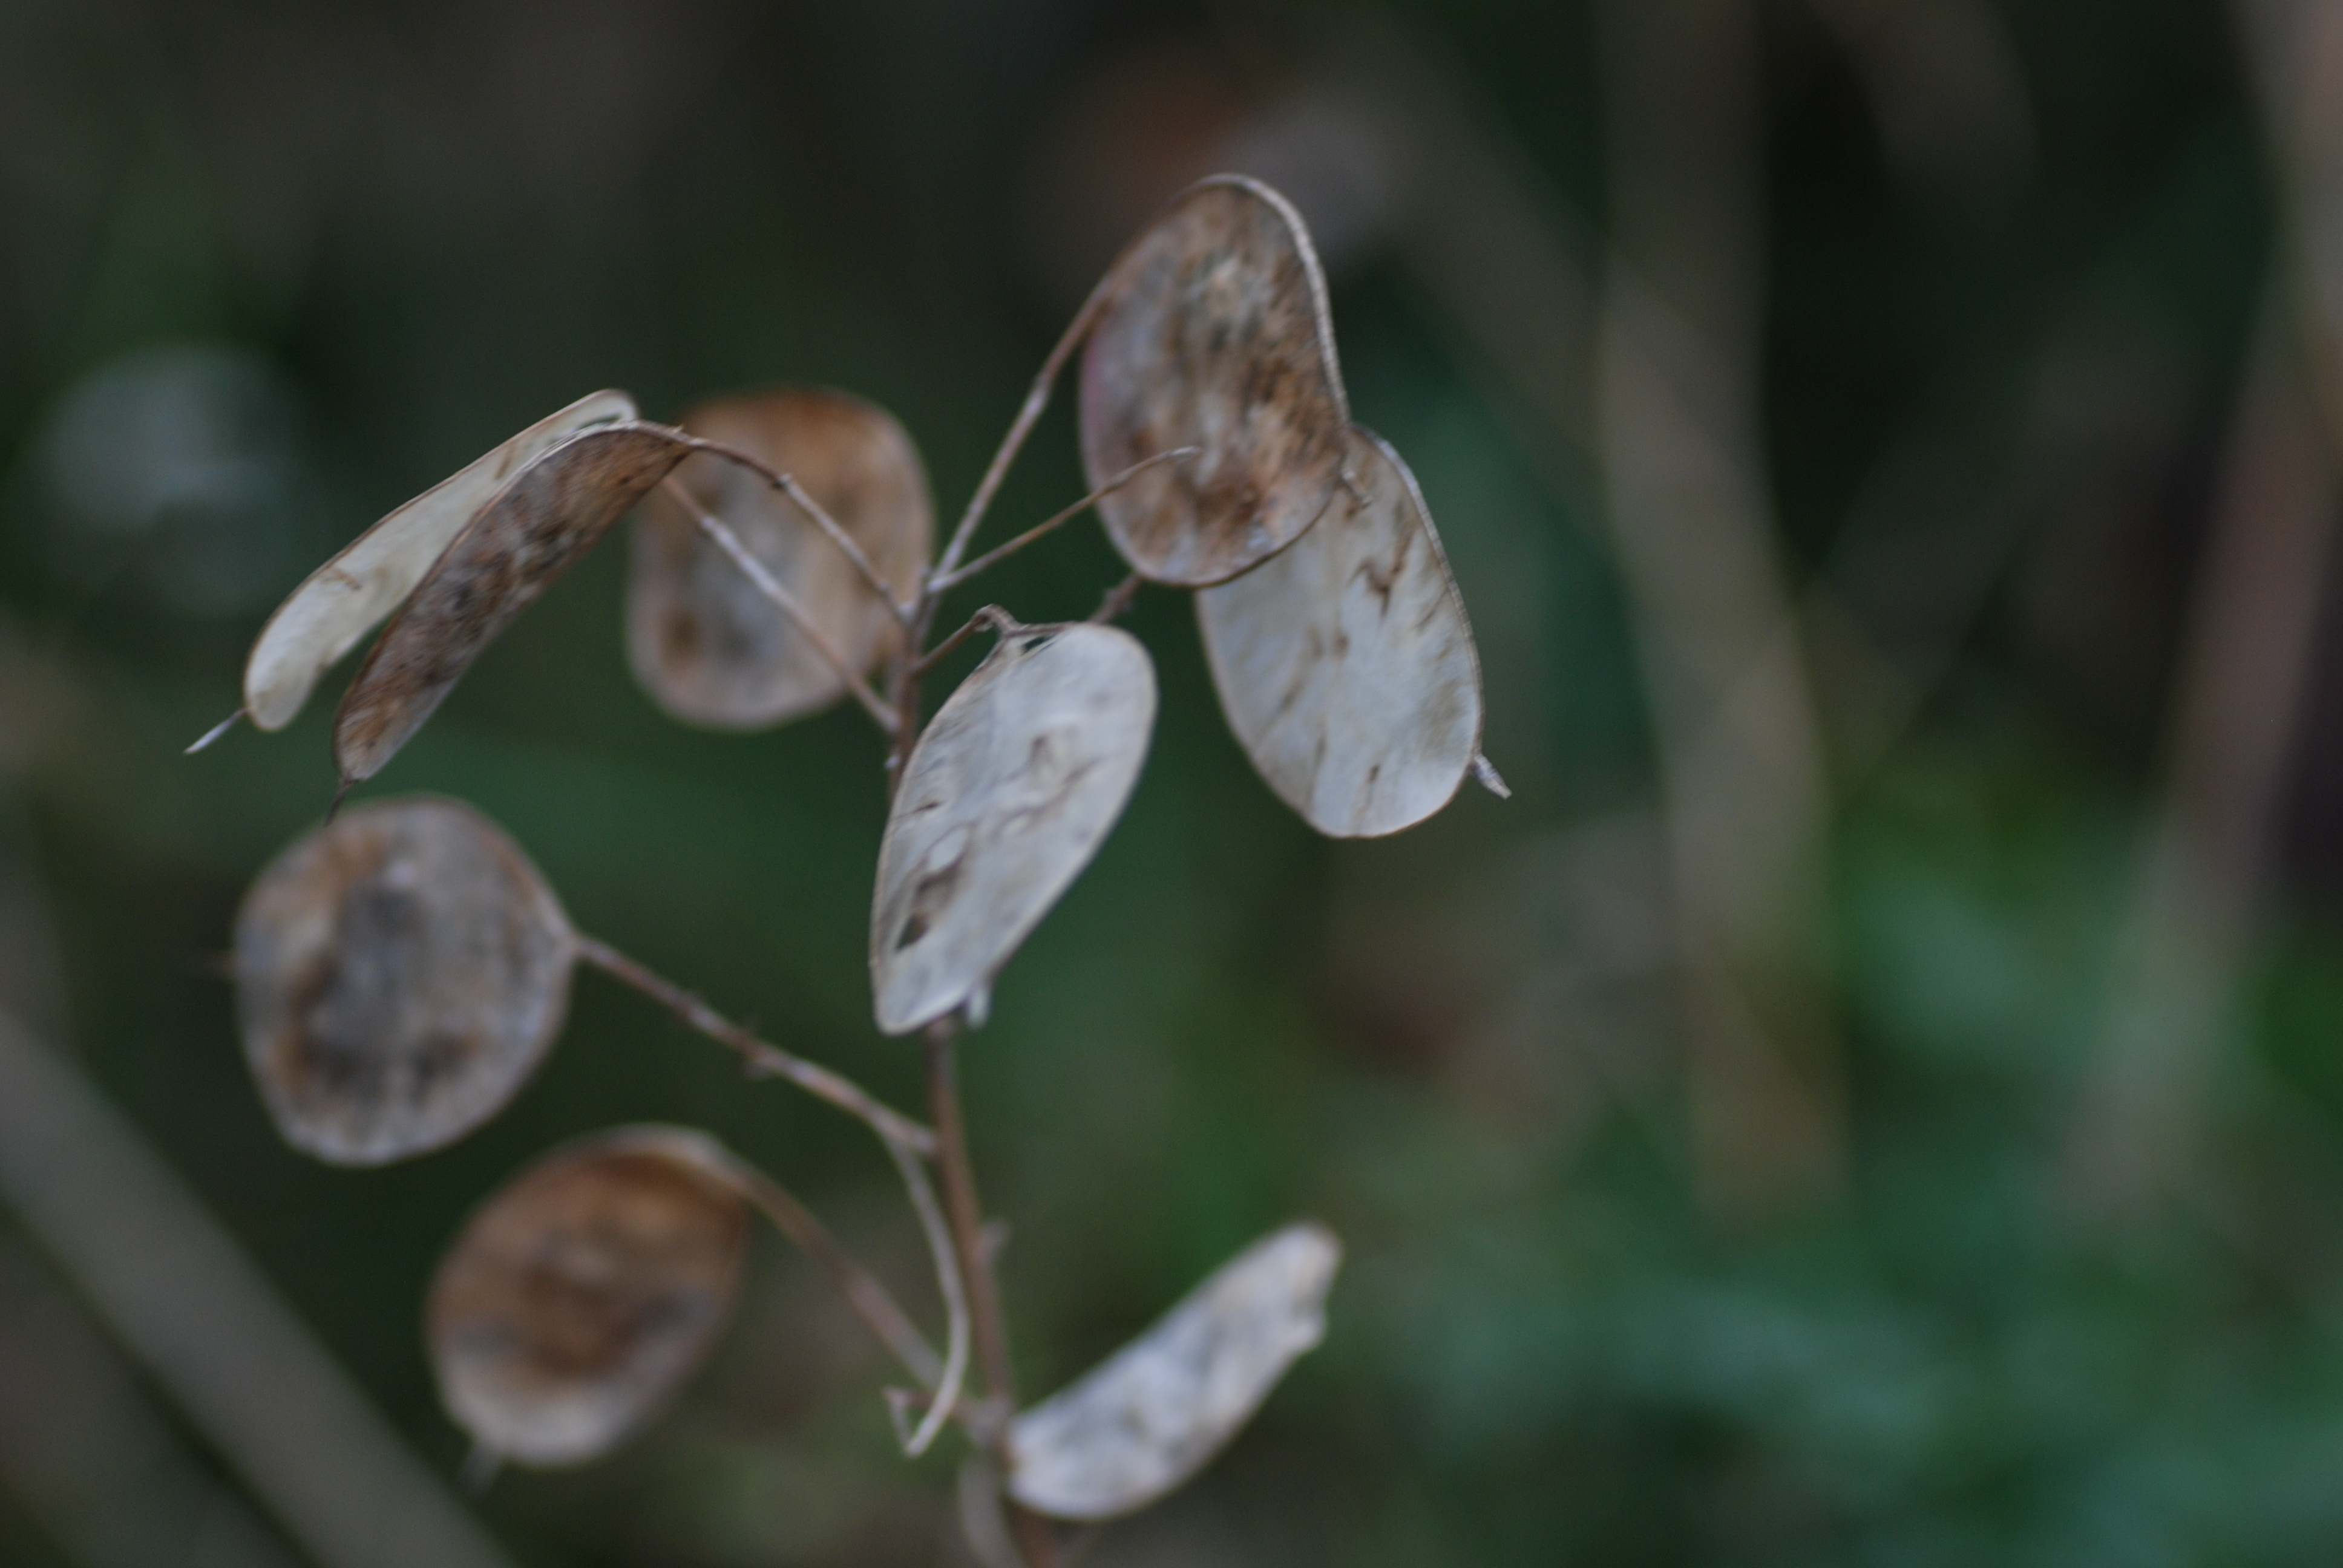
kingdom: Plantae
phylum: Tracheophyta
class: Magnoliopsida
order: Brassicales
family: Brassicaceae
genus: Lunaria
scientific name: Lunaria annua
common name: Honesty
